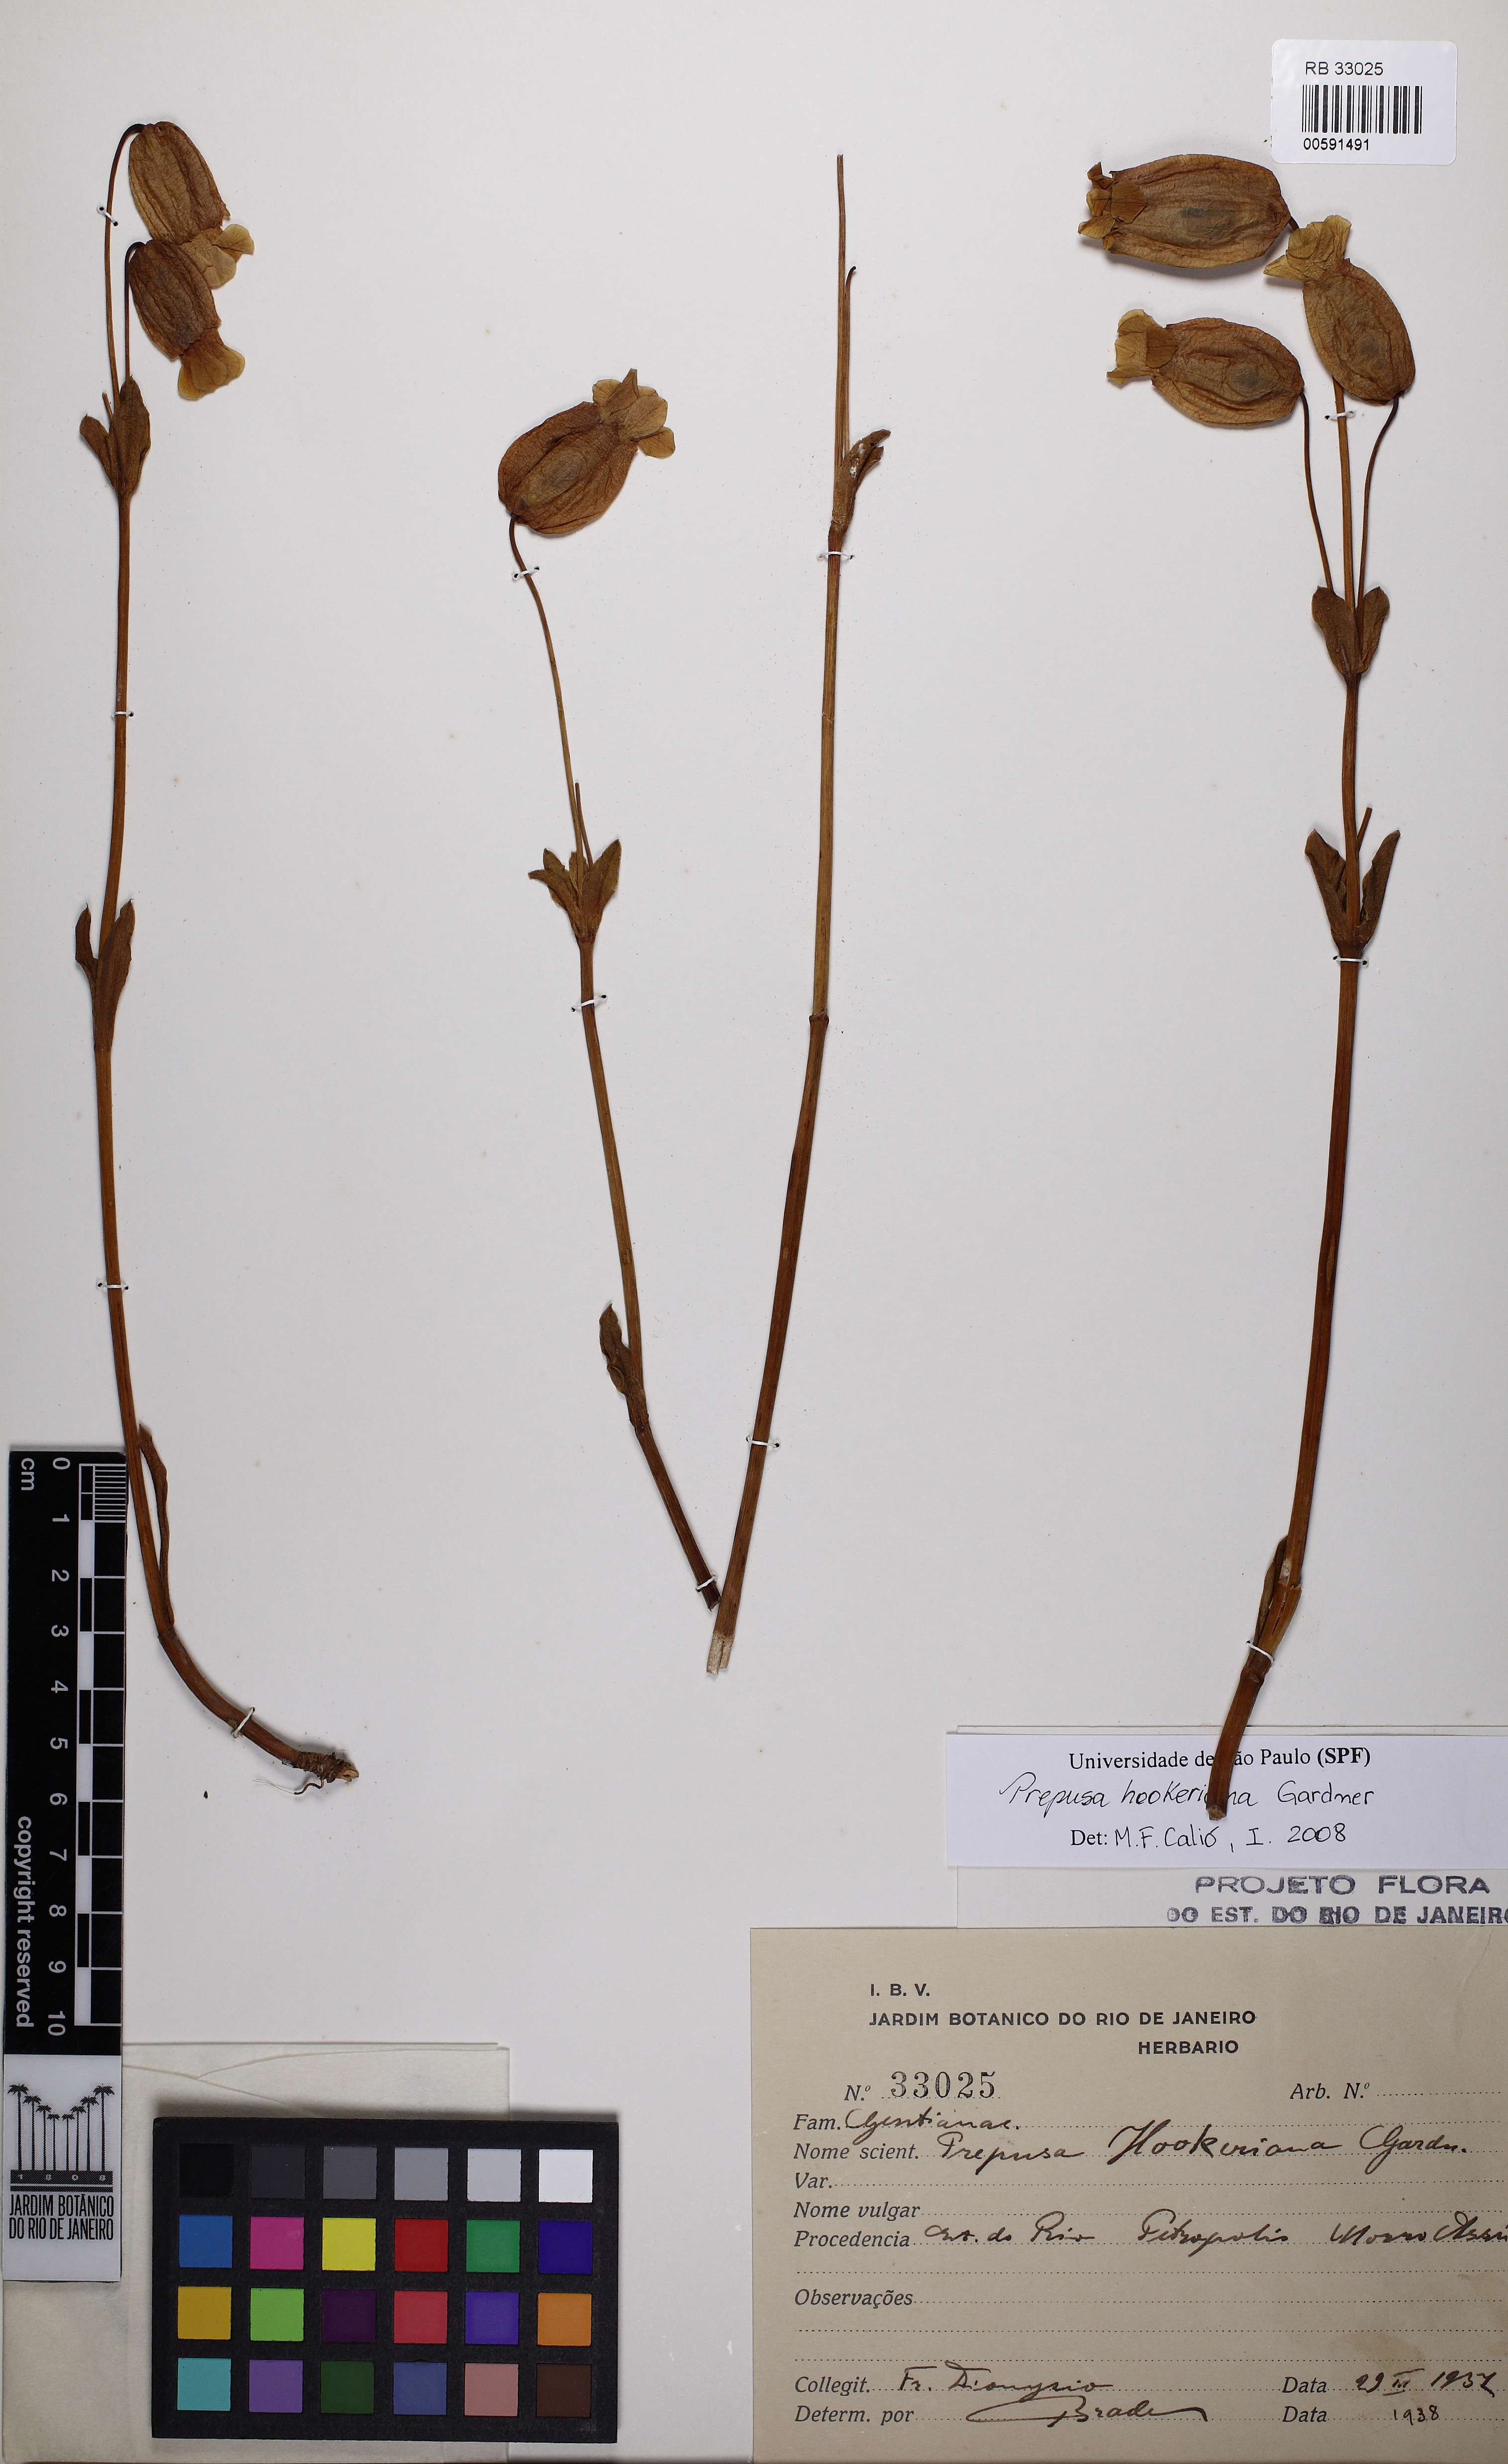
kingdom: Plantae
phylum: Tracheophyta
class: Magnoliopsida
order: Gentianales
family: Gentianaceae
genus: Prepusa
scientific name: Prepusa hookeriana
